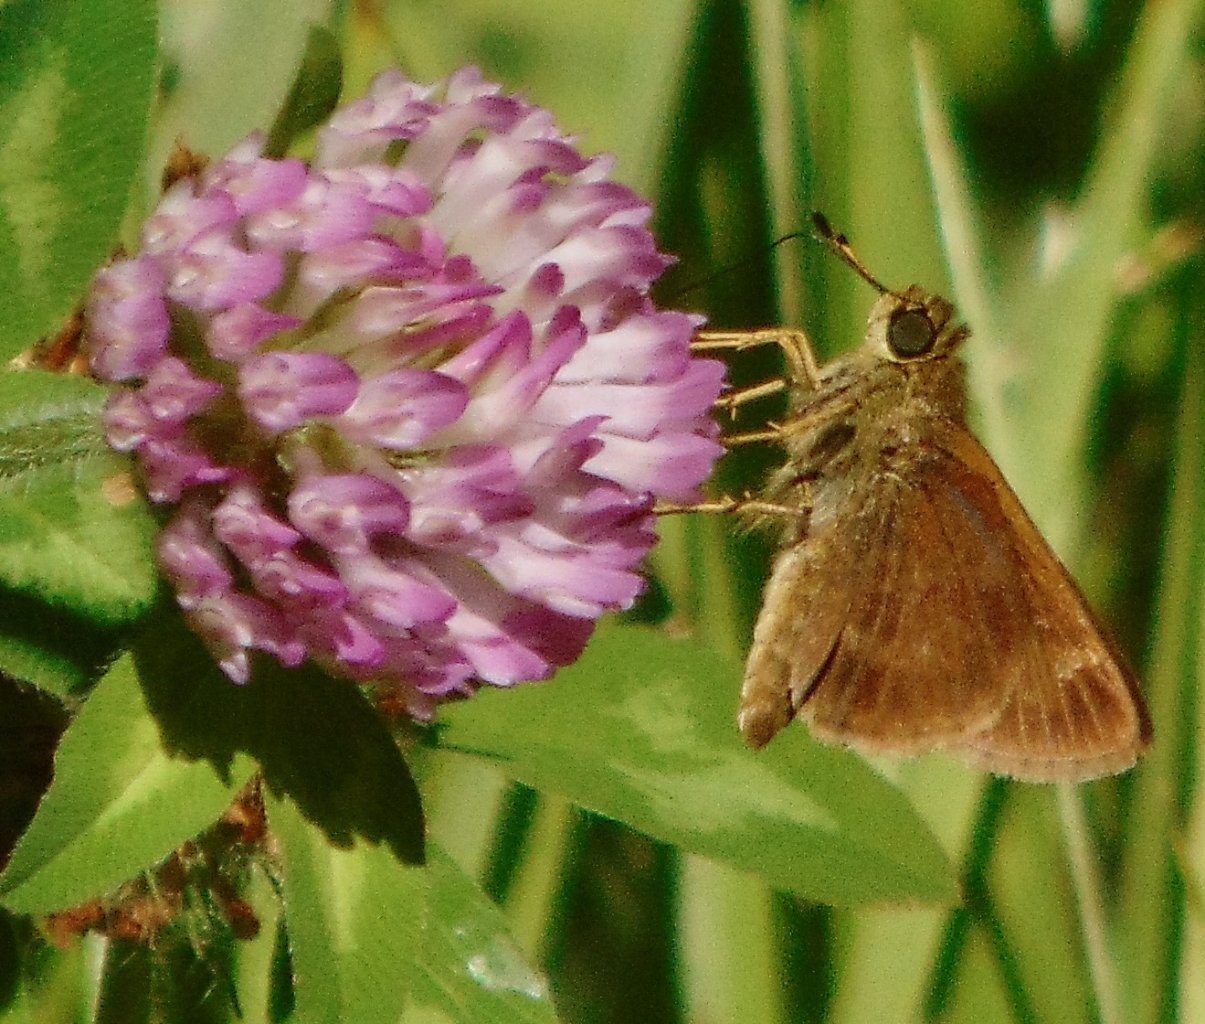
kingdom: Animalia
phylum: Arthropoda
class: Insecta
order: Lepidoptera
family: Hesperiidae
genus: Vernia
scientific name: Vernia verna
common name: Little Glassywing
